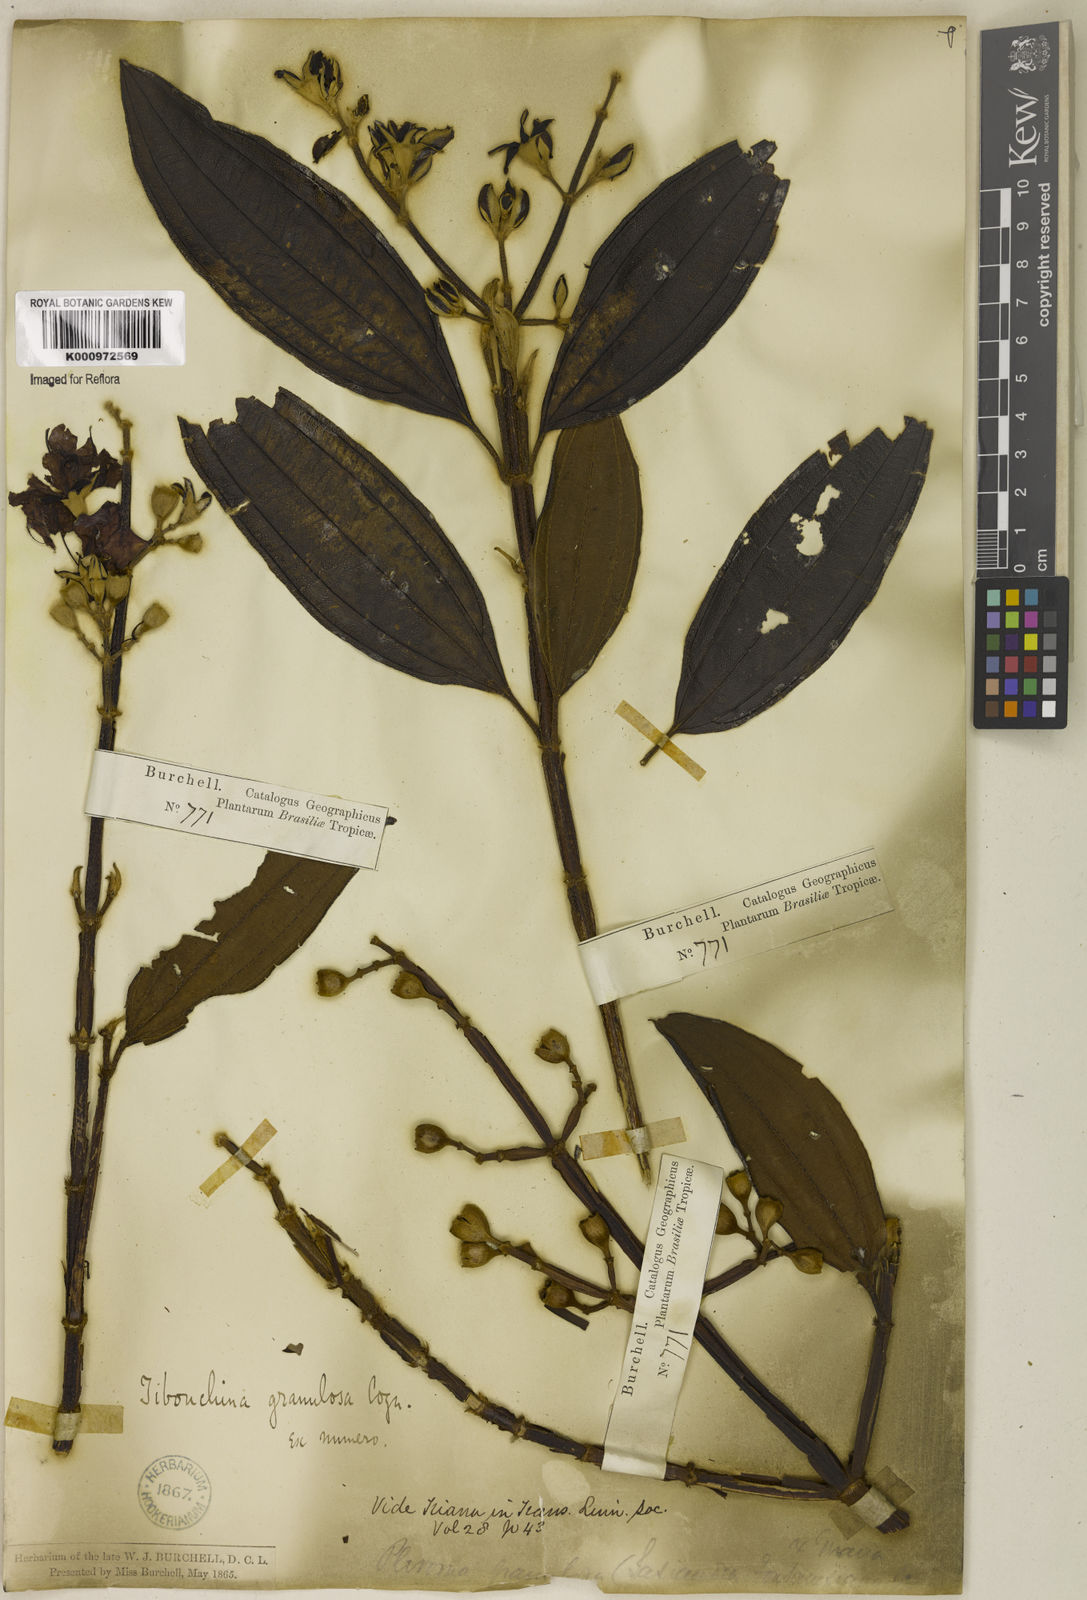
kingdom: Plantae
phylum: Tracheophyta
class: Magnoliopsida
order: Myrtales
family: Melastomataceae
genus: Pleroma
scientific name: Pleroma granulosum
